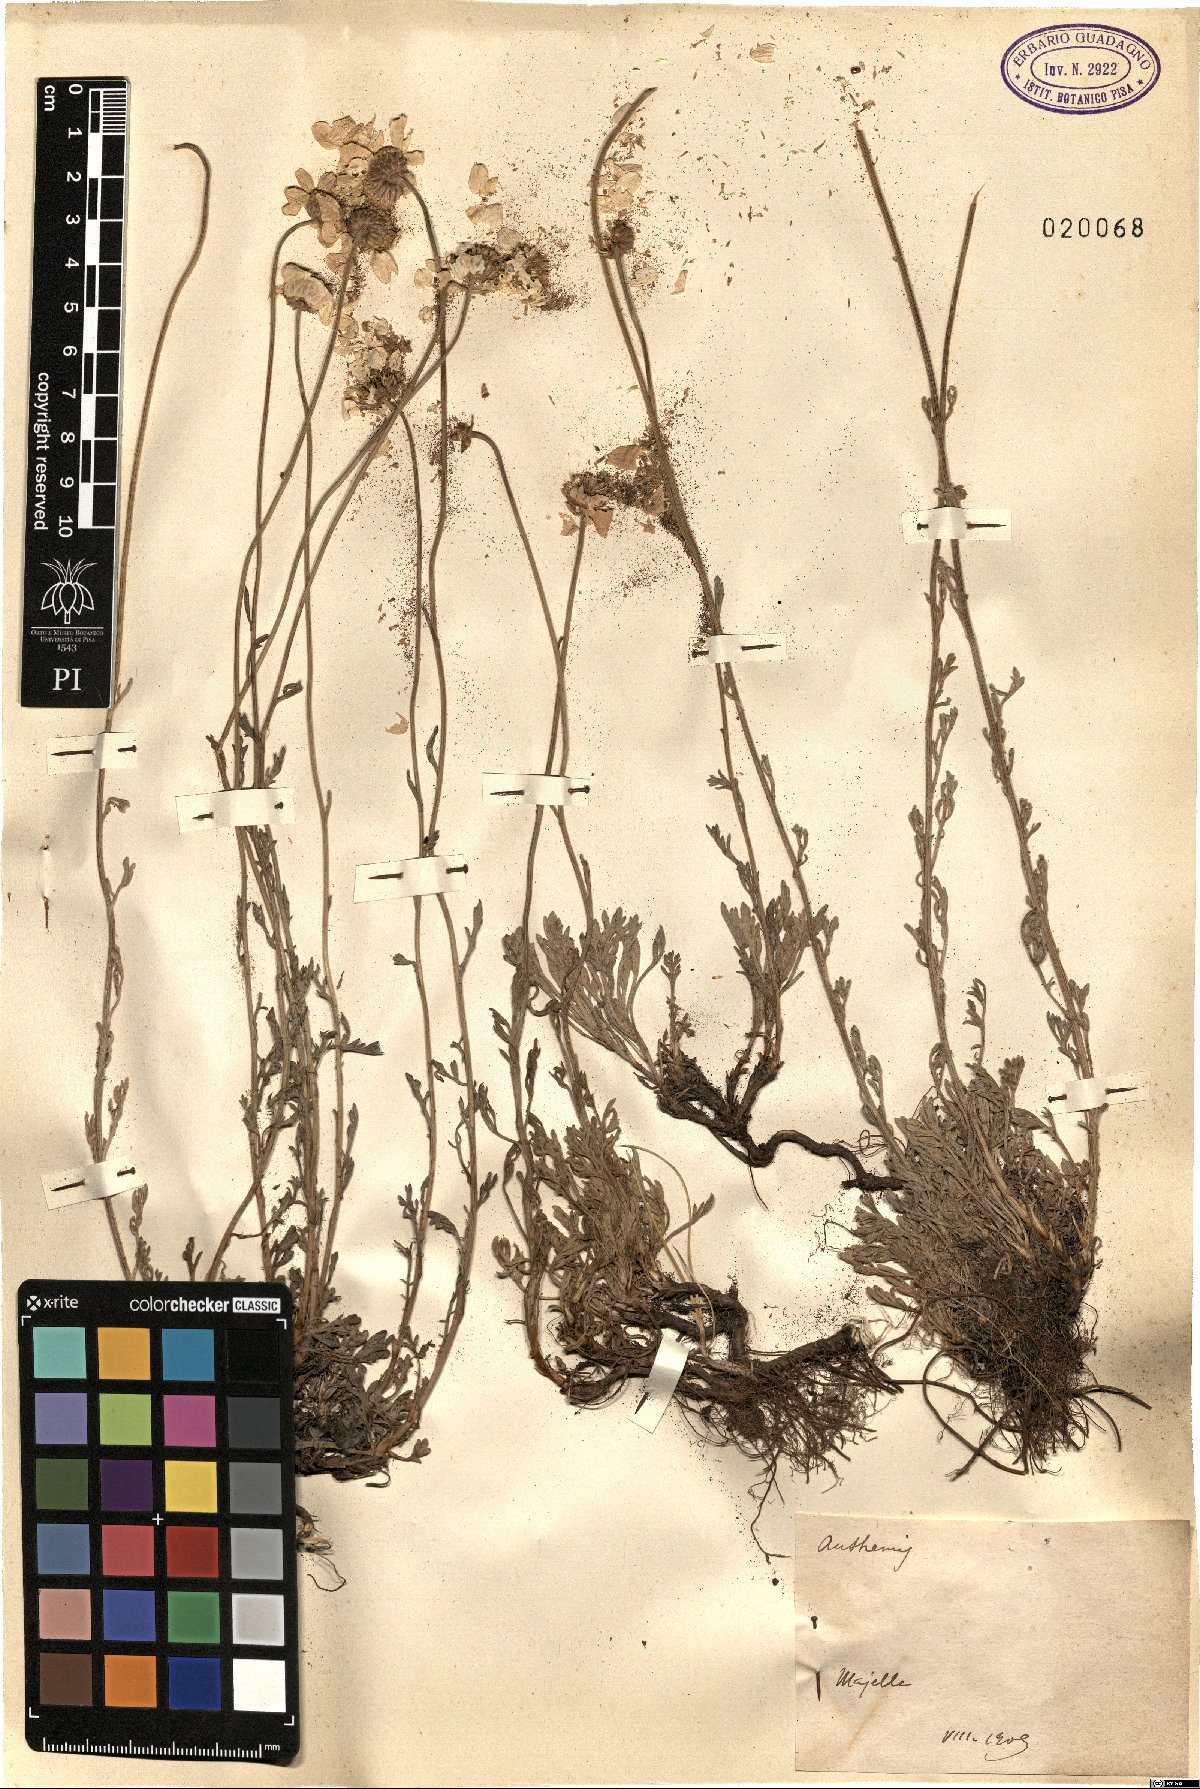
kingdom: Plantae
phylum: Tracheophyta
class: Magnoliopsida
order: Asterales
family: Asteraceae
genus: Anthemis
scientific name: Anthemis
